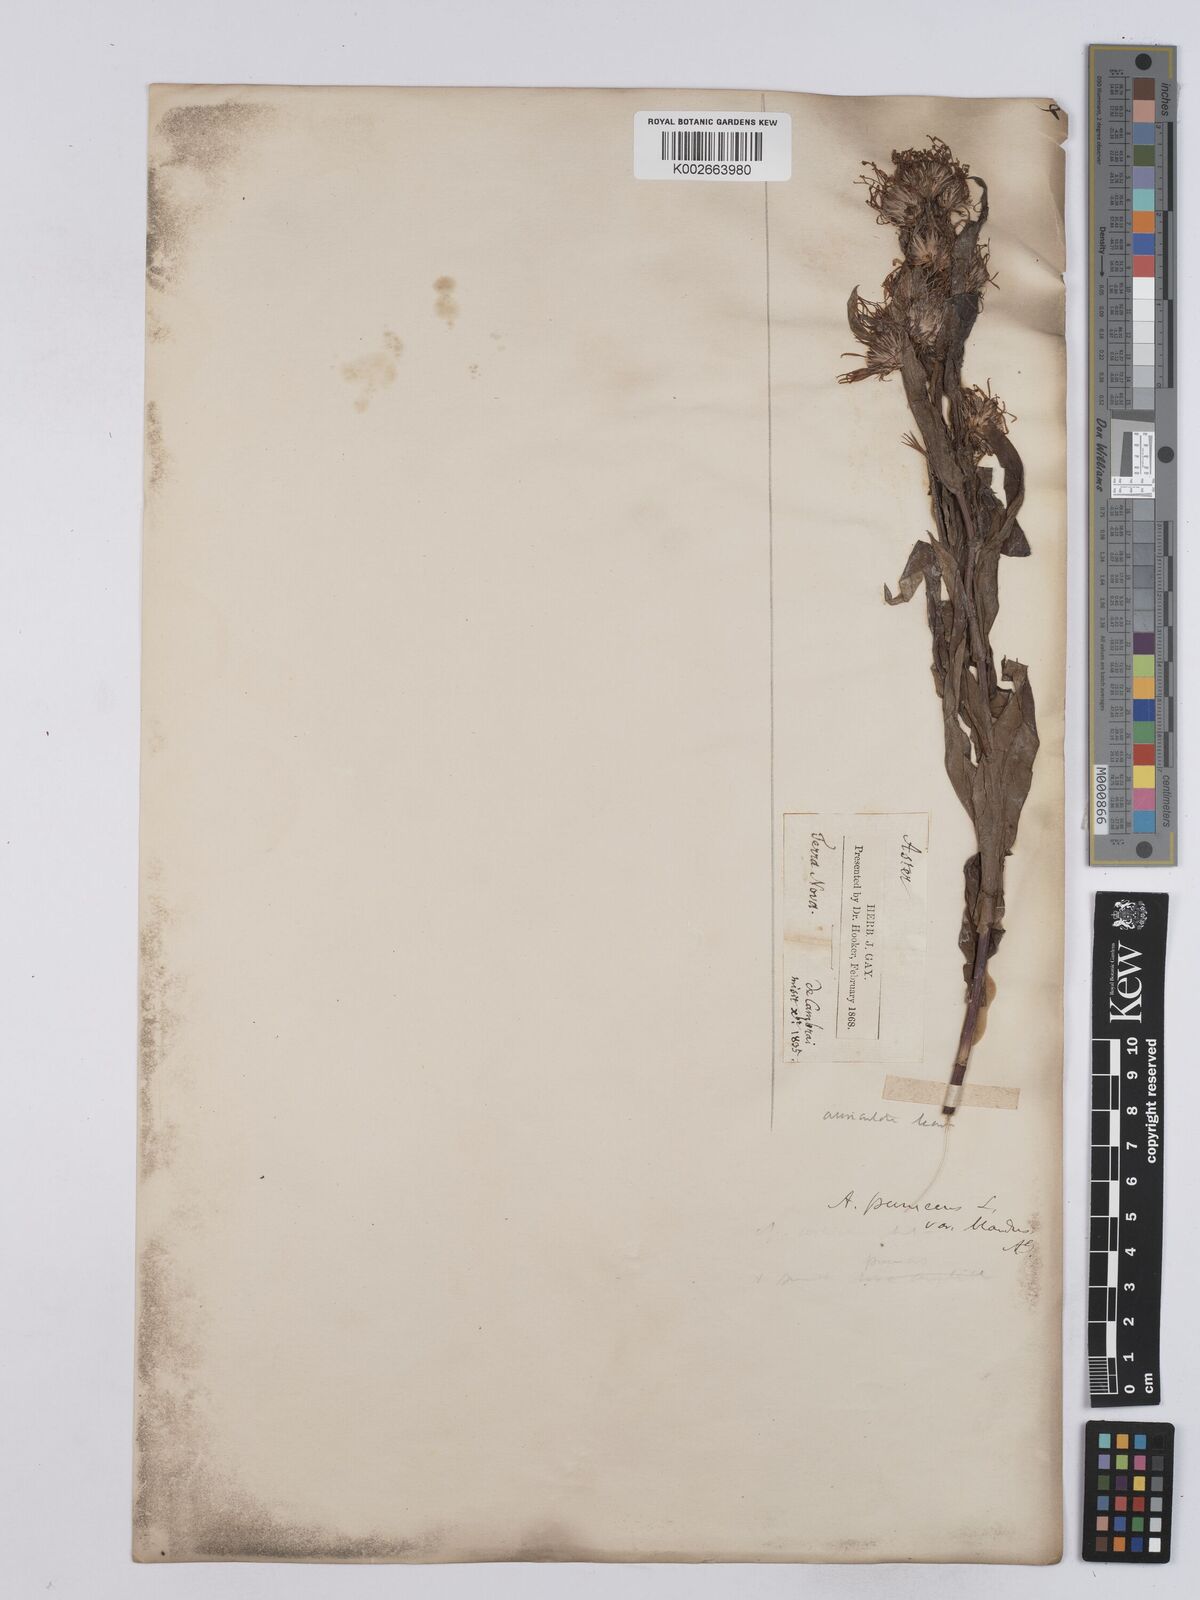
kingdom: Plantae
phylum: Tracheophyta
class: Magnoliopsida
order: Asterales
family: Asteraceae
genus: Symphyotrichum
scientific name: Symphyotrichum puniceum
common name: Bog aster
